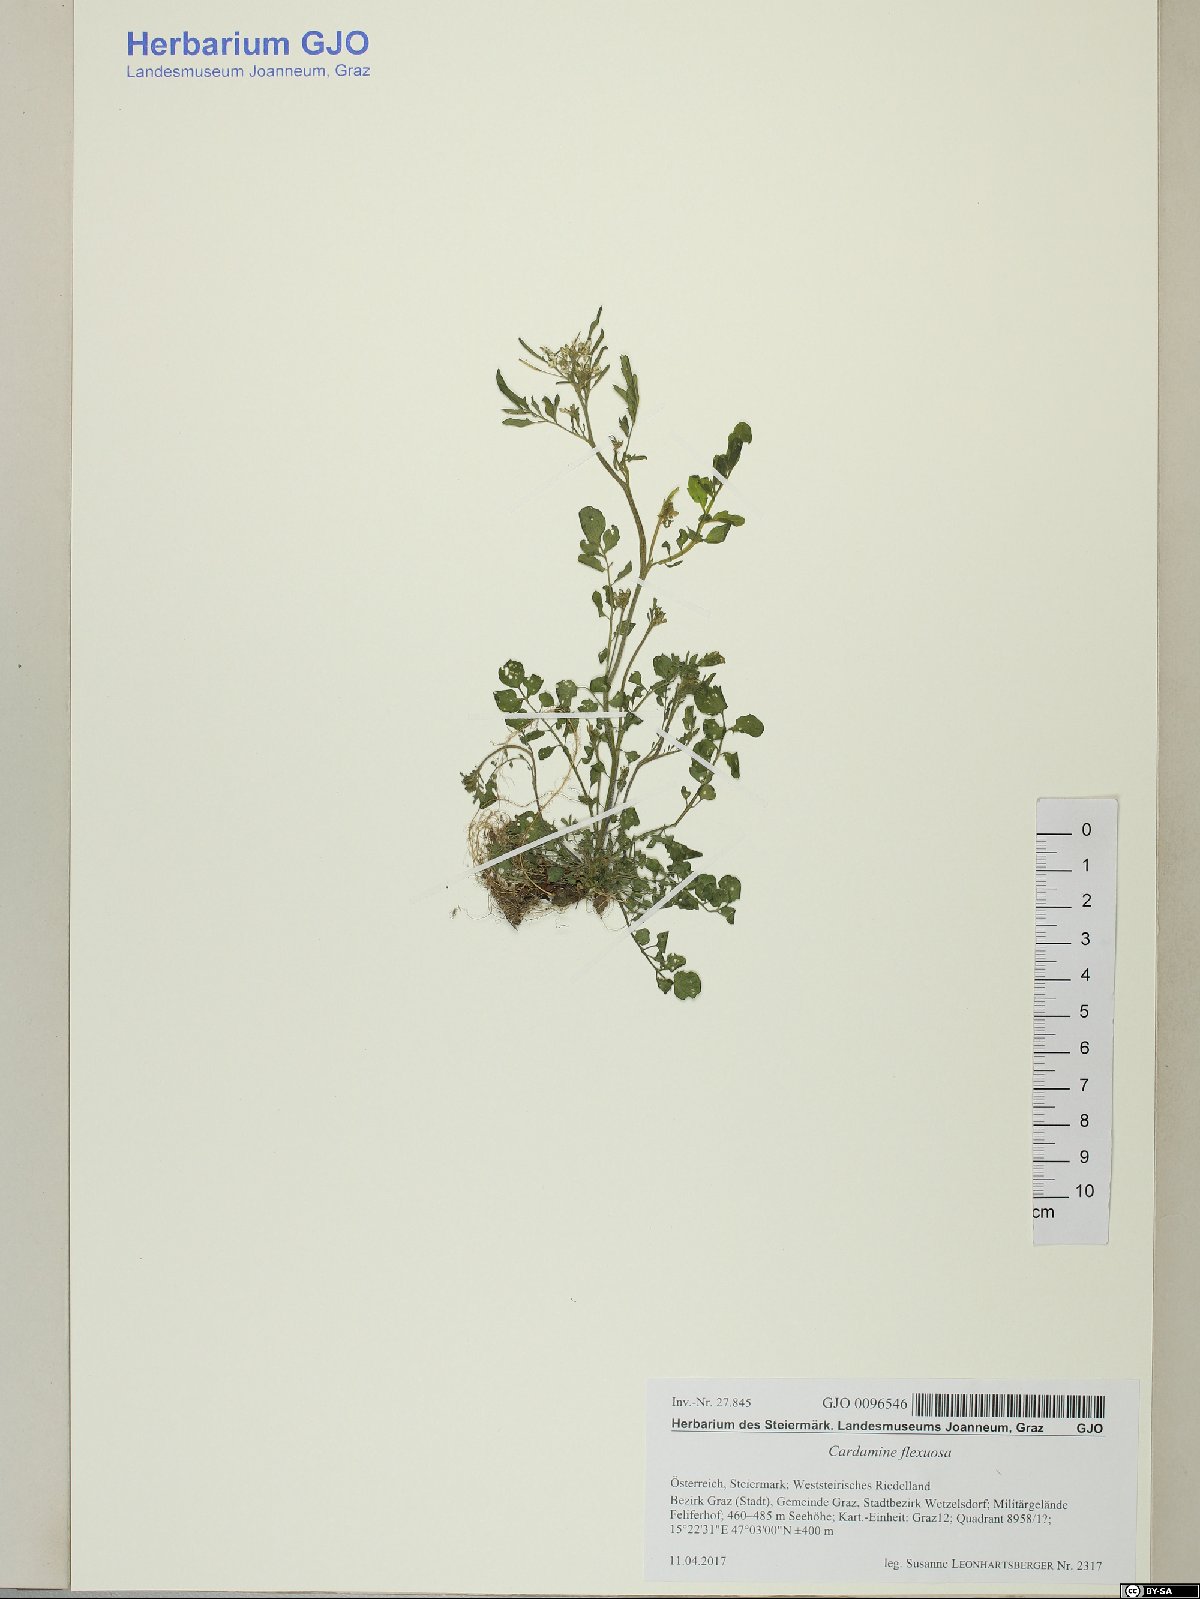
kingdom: Plantae
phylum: Tracheophyta
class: Magnoliopsida
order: Brassicales
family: Brassicaceae
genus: Cardamine
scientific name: Cardamine flexuosa
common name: Woodland bittercress
